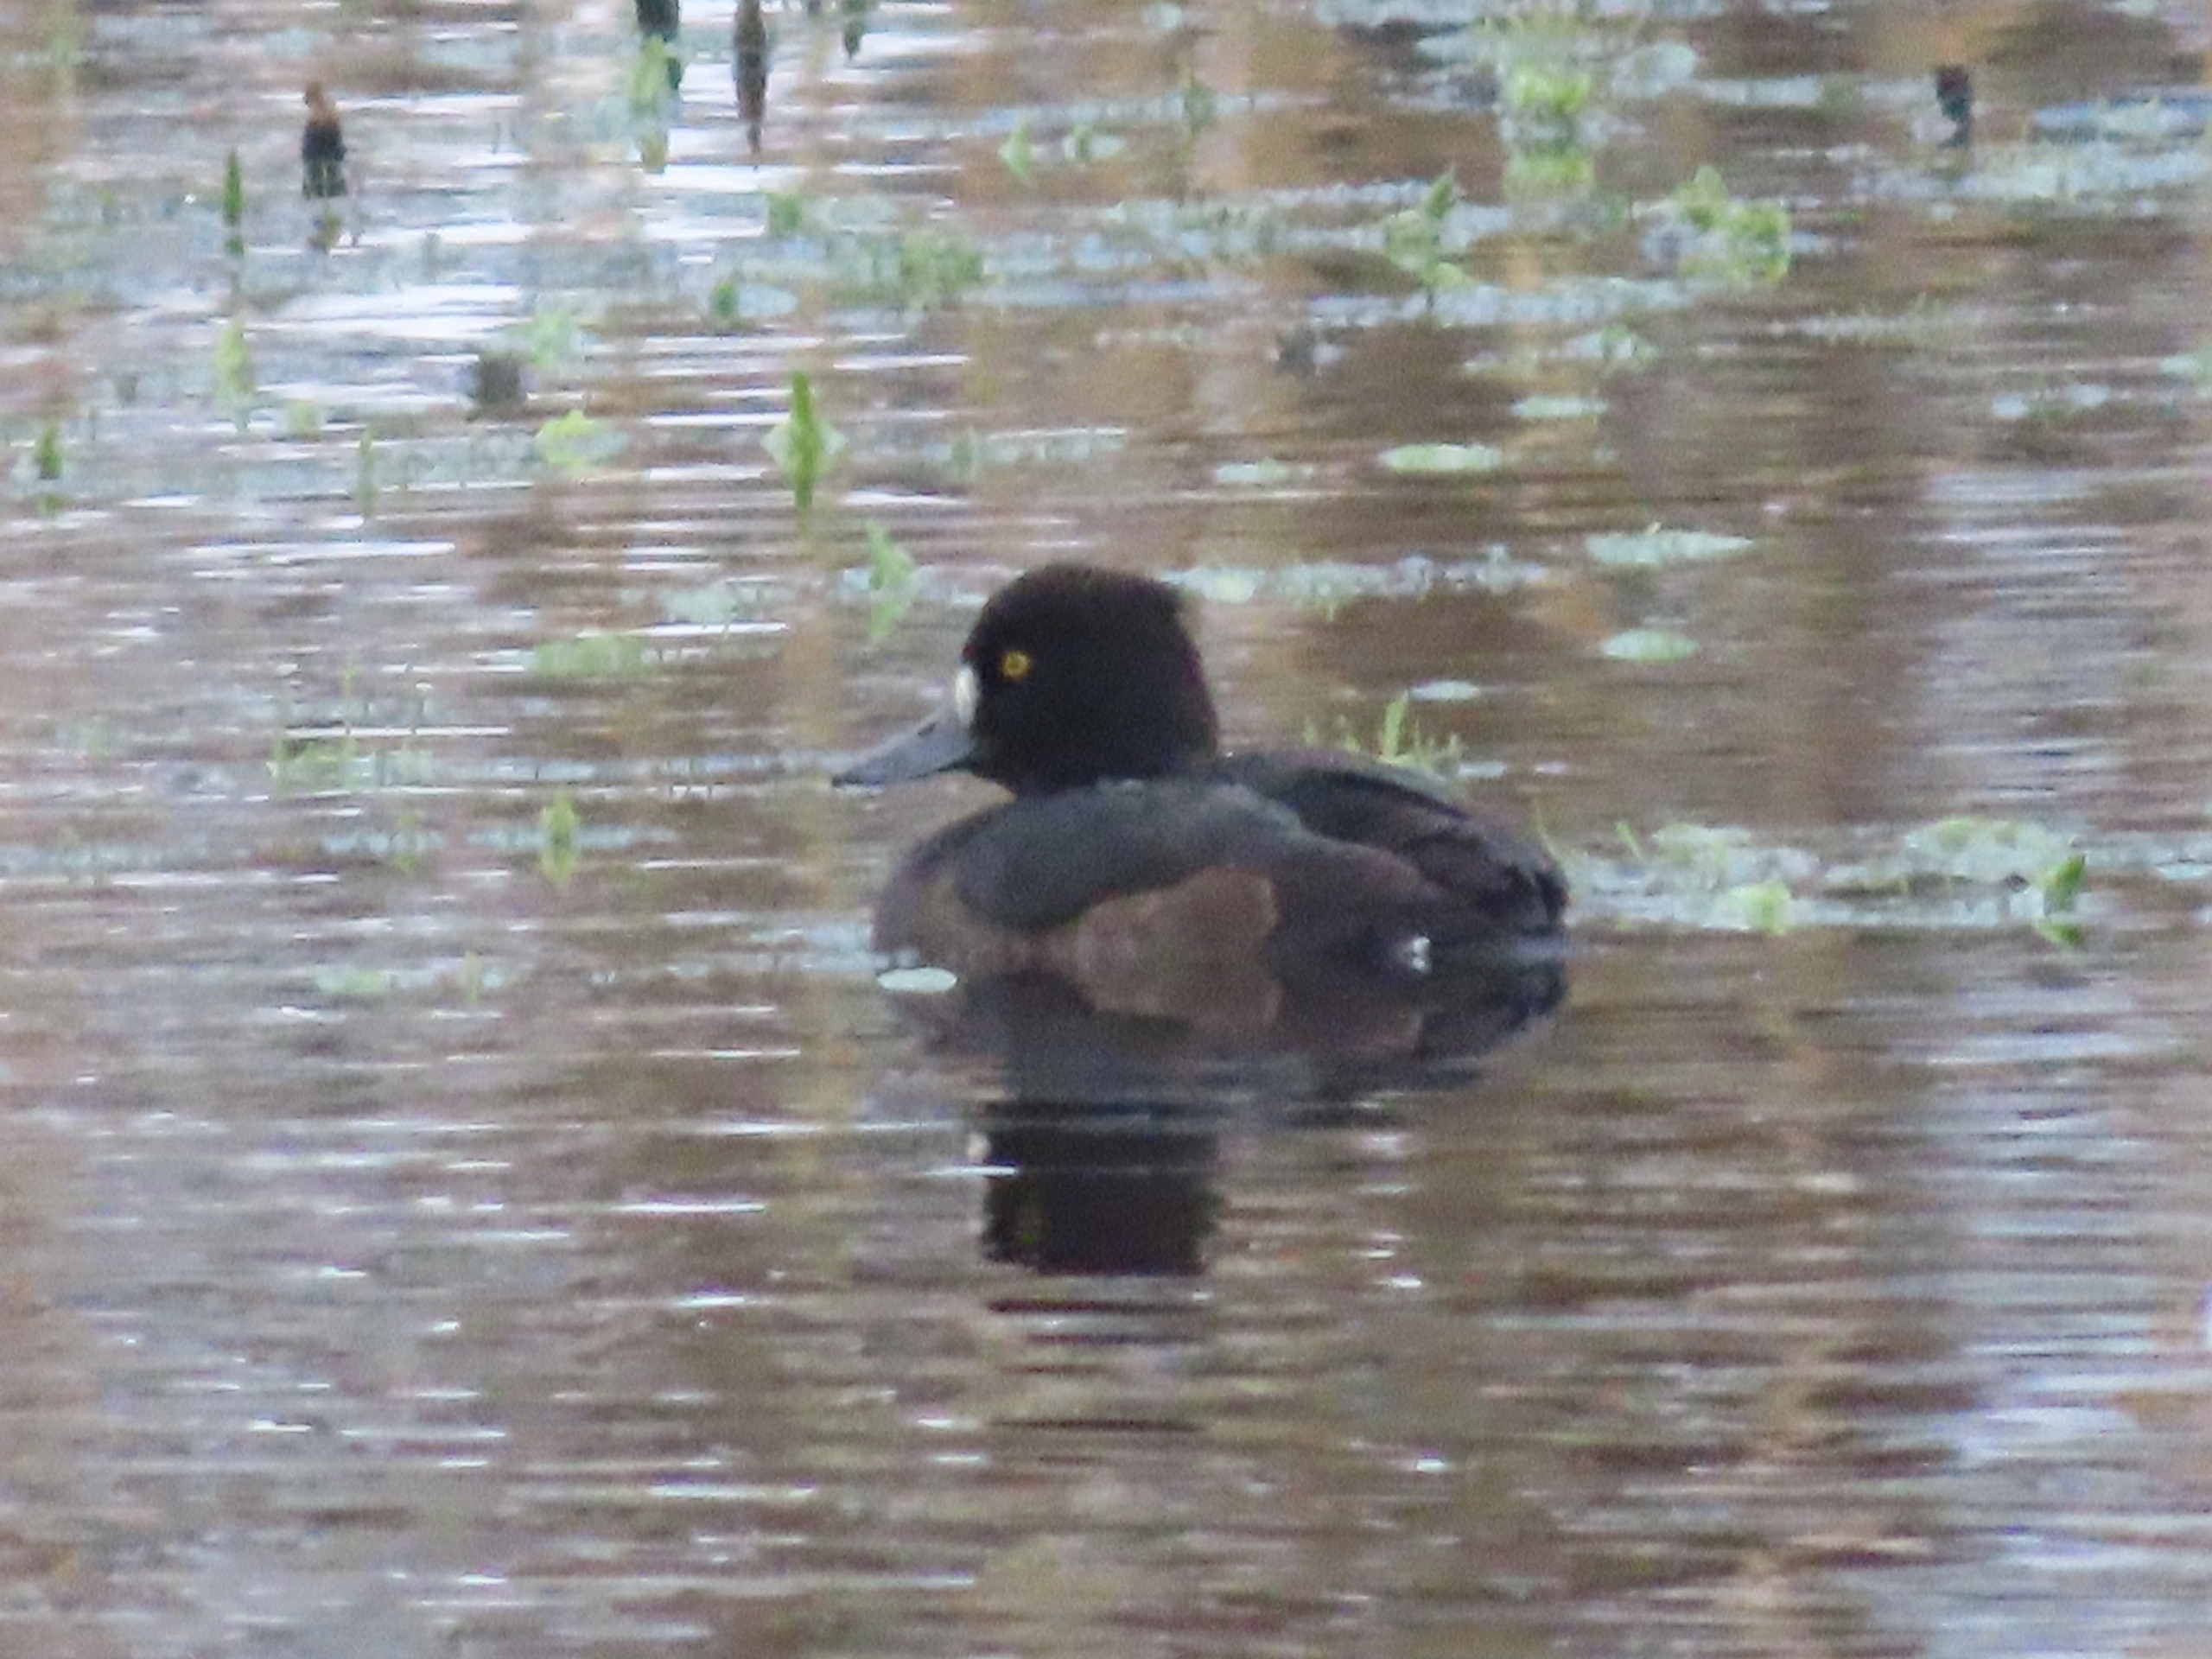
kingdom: Animalia
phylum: Chordata
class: Aves
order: Anseriformes
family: Anatidae
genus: Aythya
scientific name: Aythya fuligula
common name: Troldand
